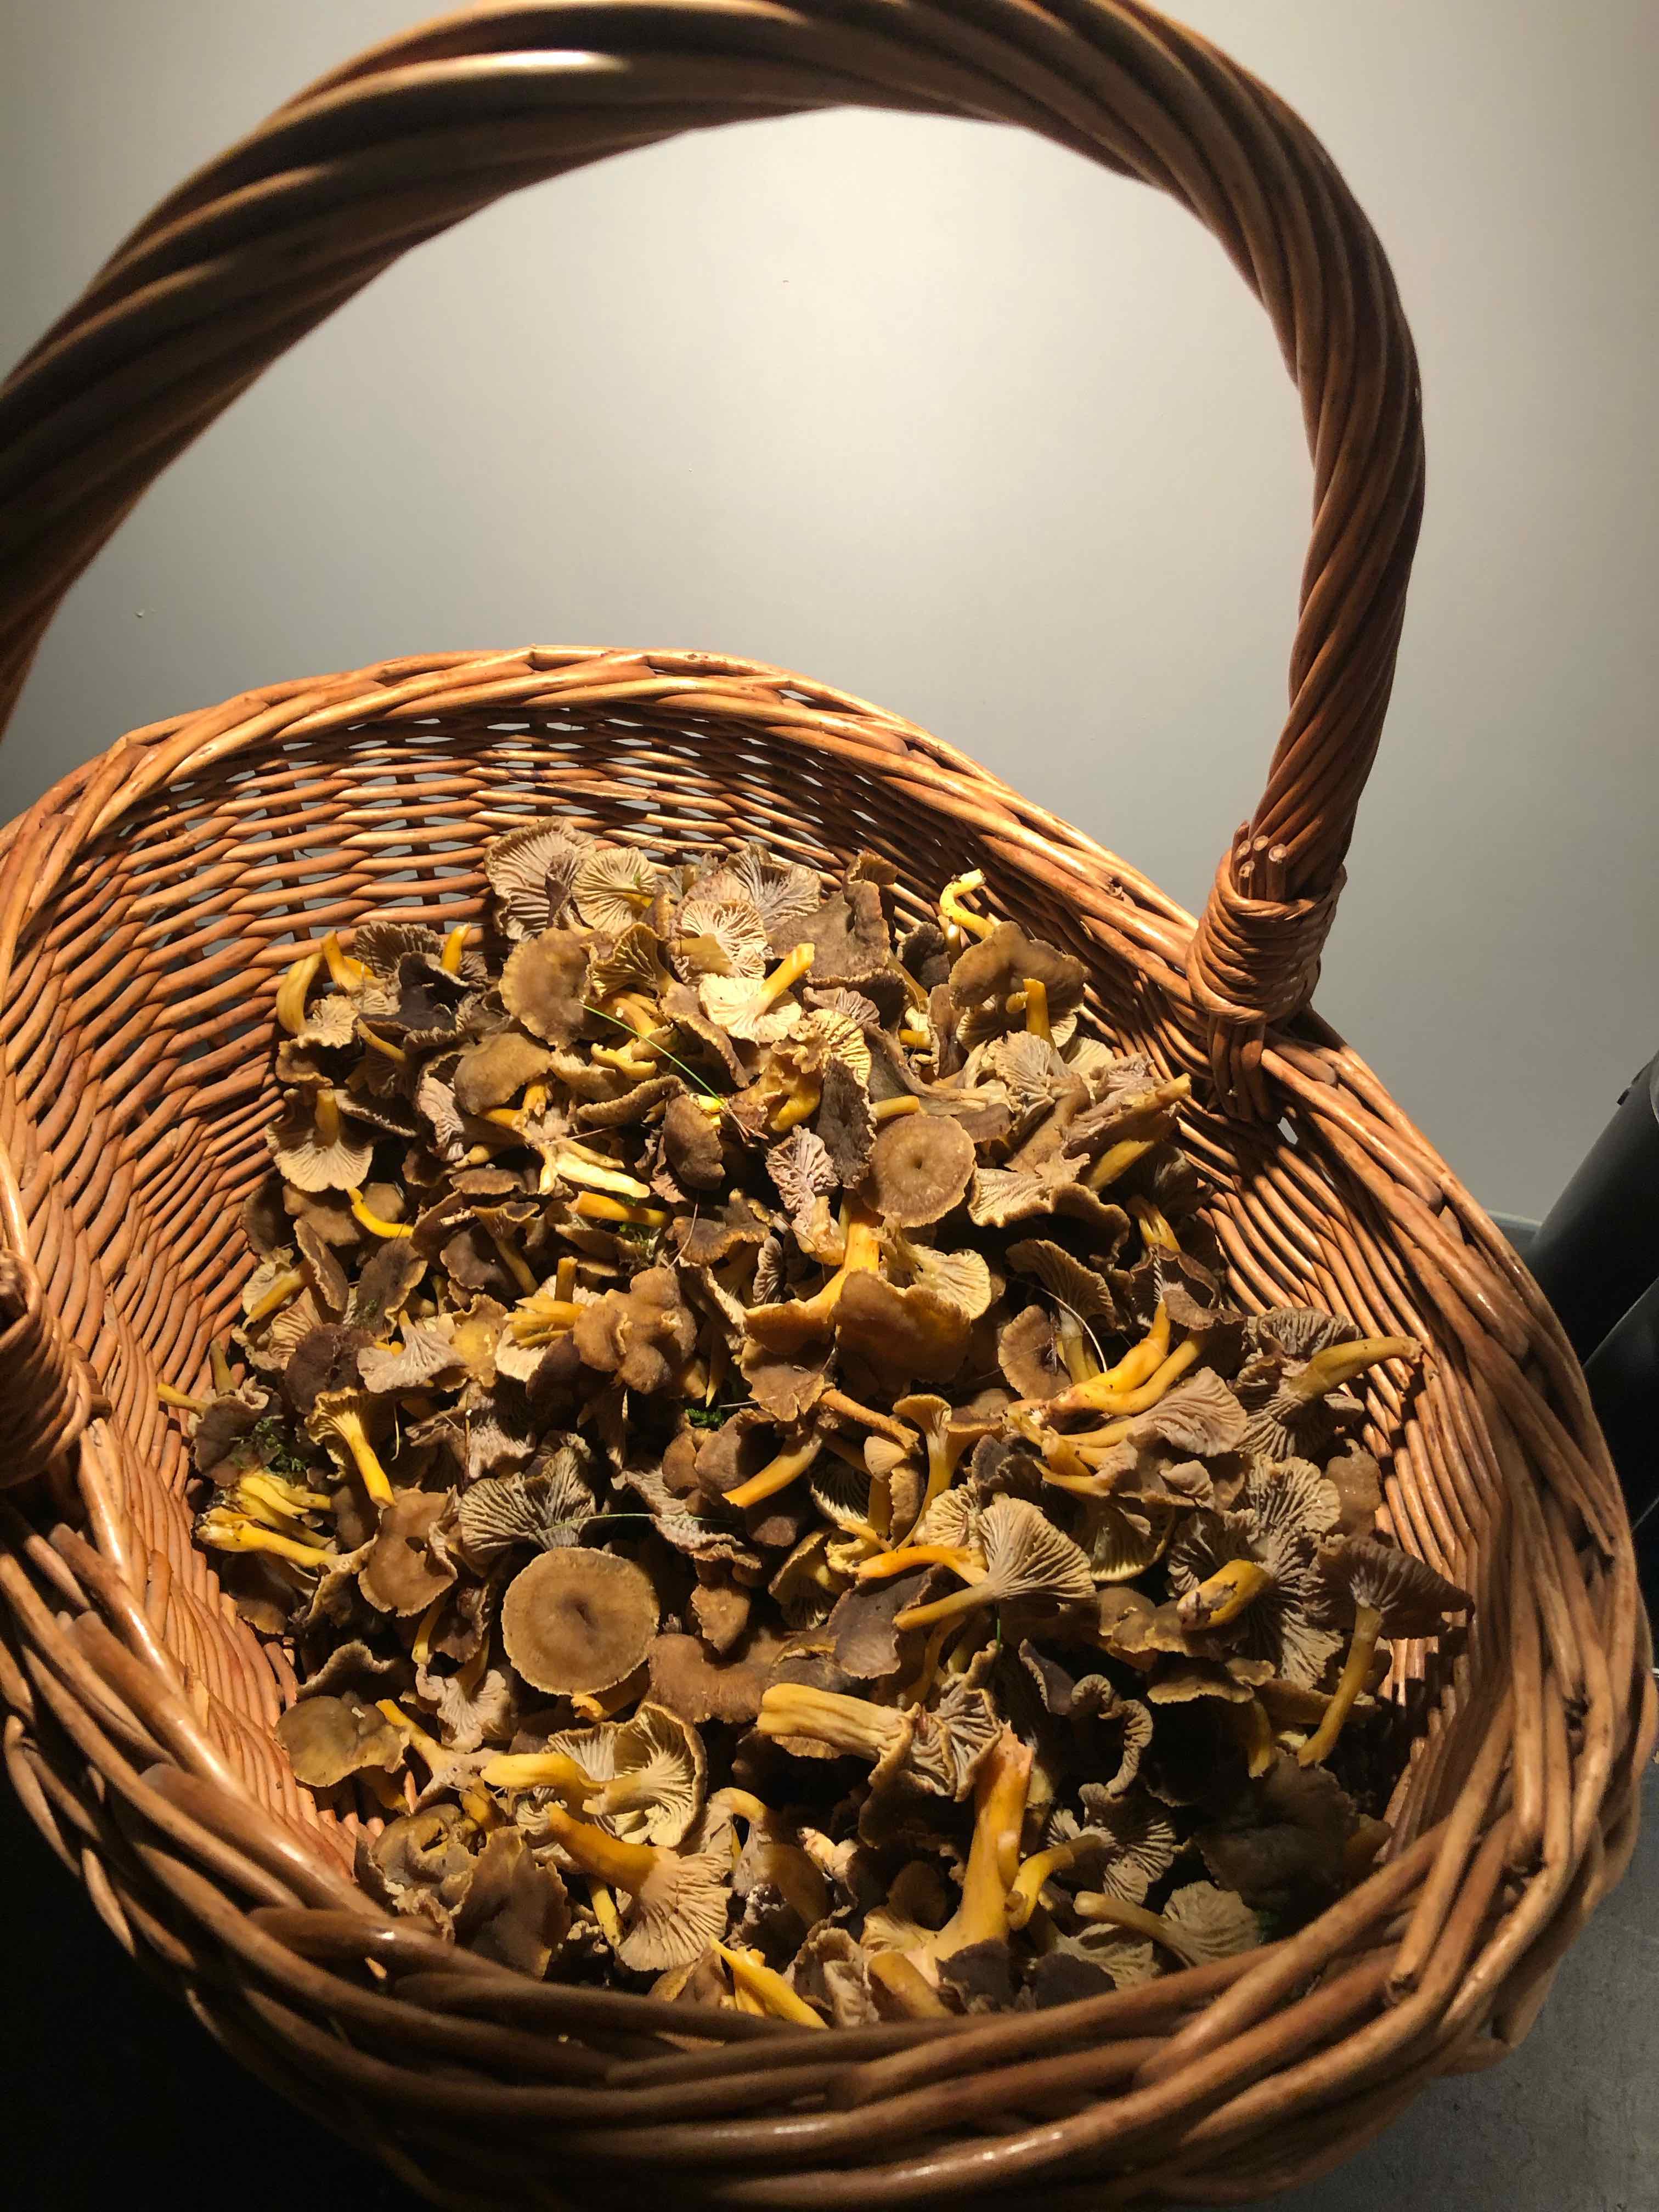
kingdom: Fungi
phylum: Basidiomycota
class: Agaricomycetes
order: Cantharellales
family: Hydnaceae
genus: Craterellus
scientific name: Craterellus tubaeformis
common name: tragt-kantarel
